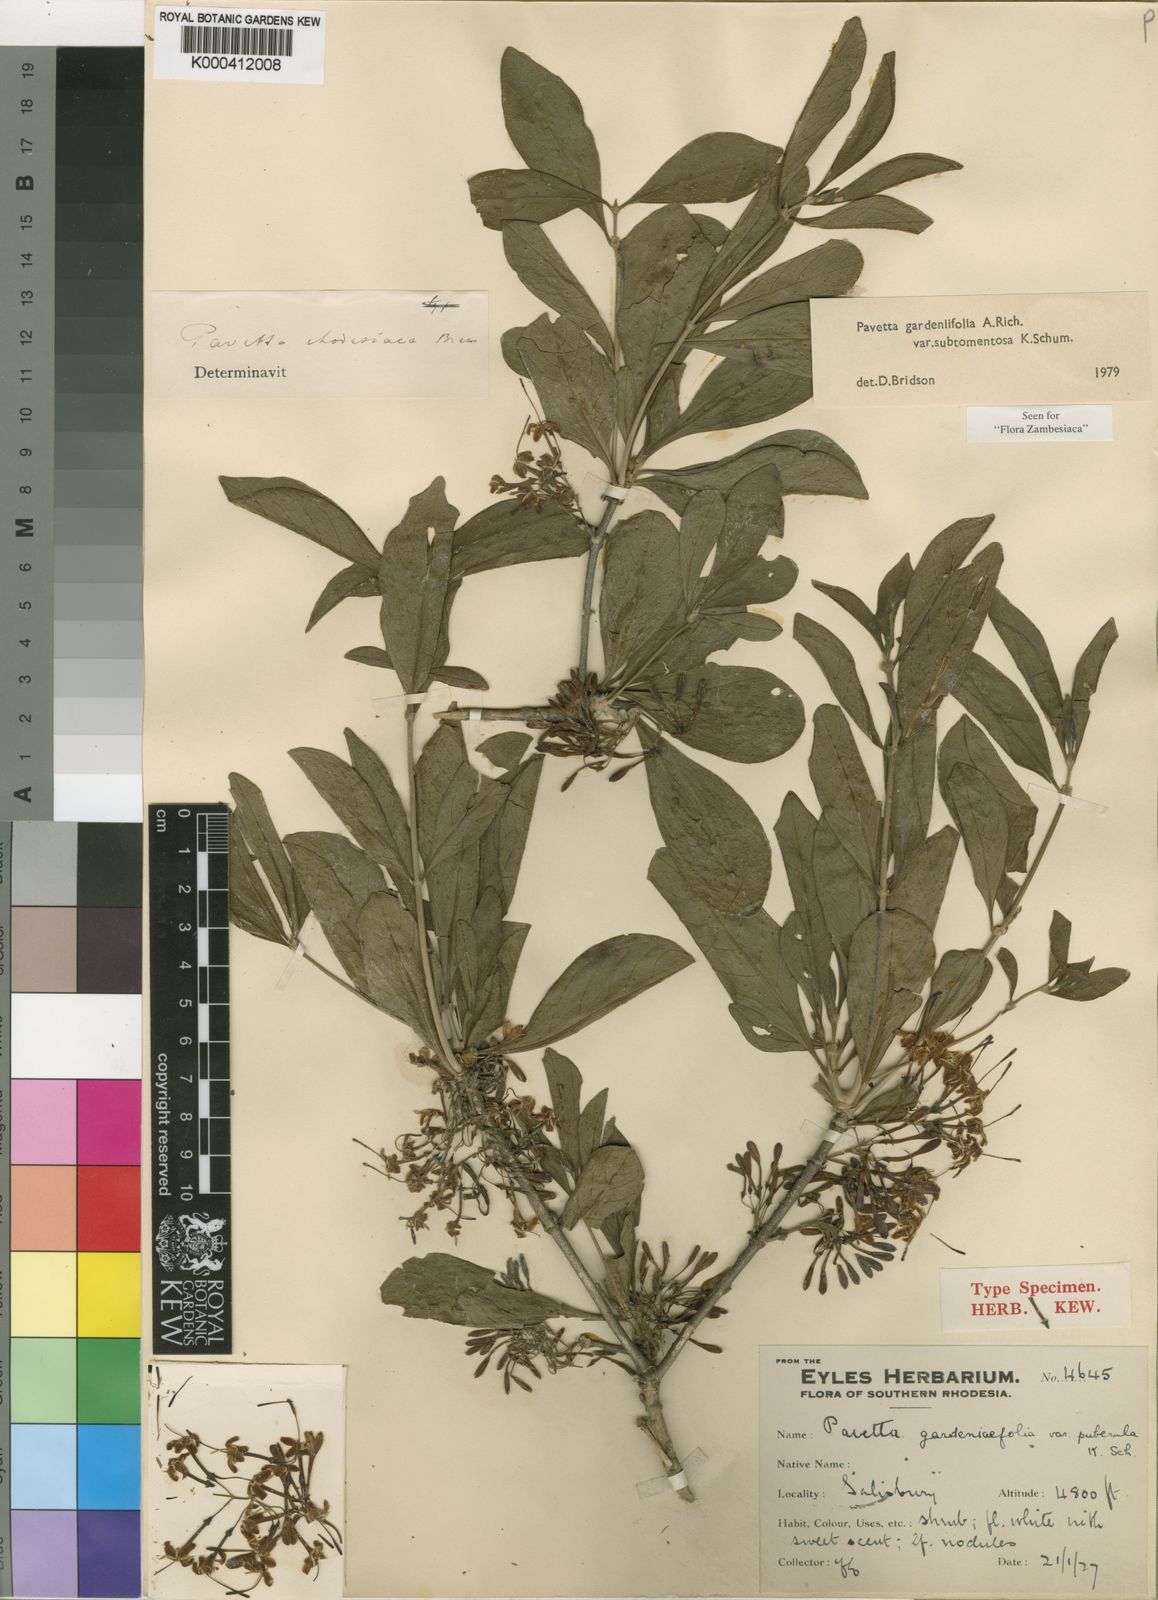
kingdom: Plantae
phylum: Tracheophyta
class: Magnoliopsida
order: Gentianales
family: Rubiaceae
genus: Pavetta
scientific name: Pavetta gardeniifolia
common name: Common brides-bush
